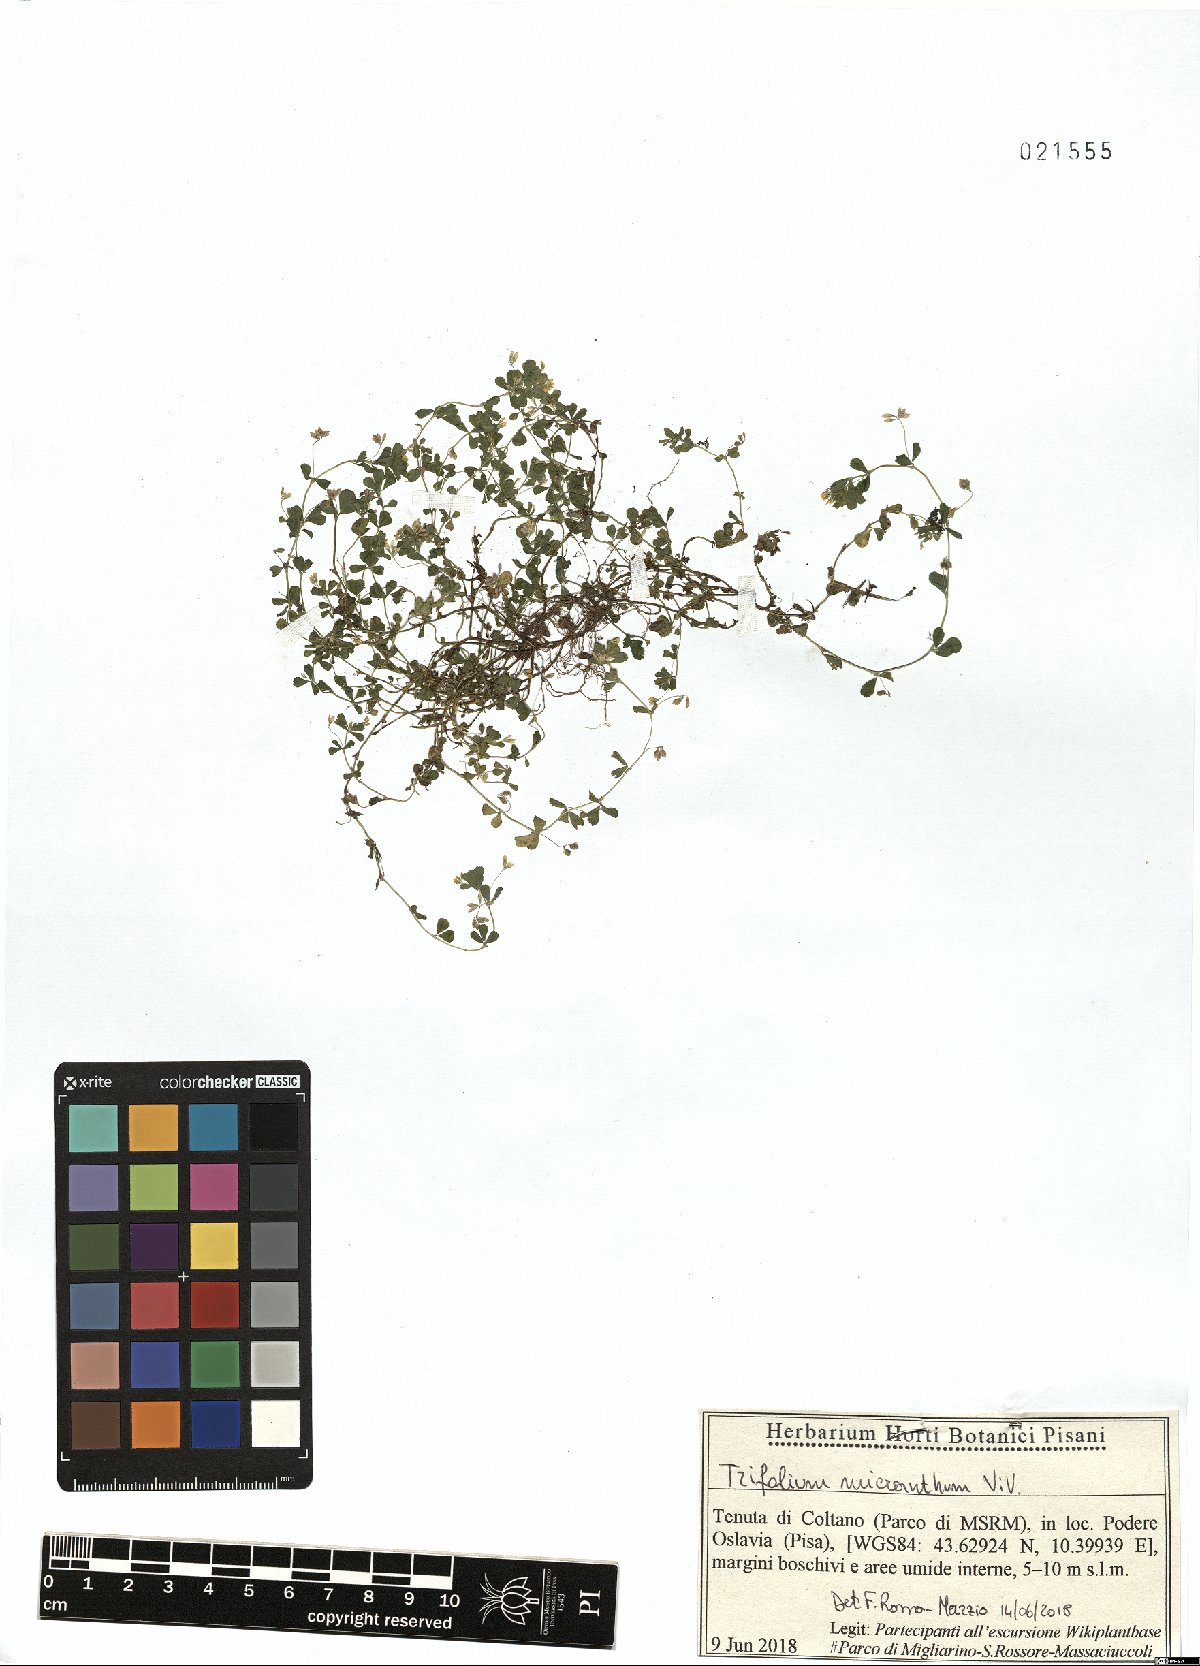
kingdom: Plantae
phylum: Tracheophyta
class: Magnoliopsida
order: Fabales
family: Fabaceae
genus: Trifolium
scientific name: Trifolium micranthum
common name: Slender trefoil
